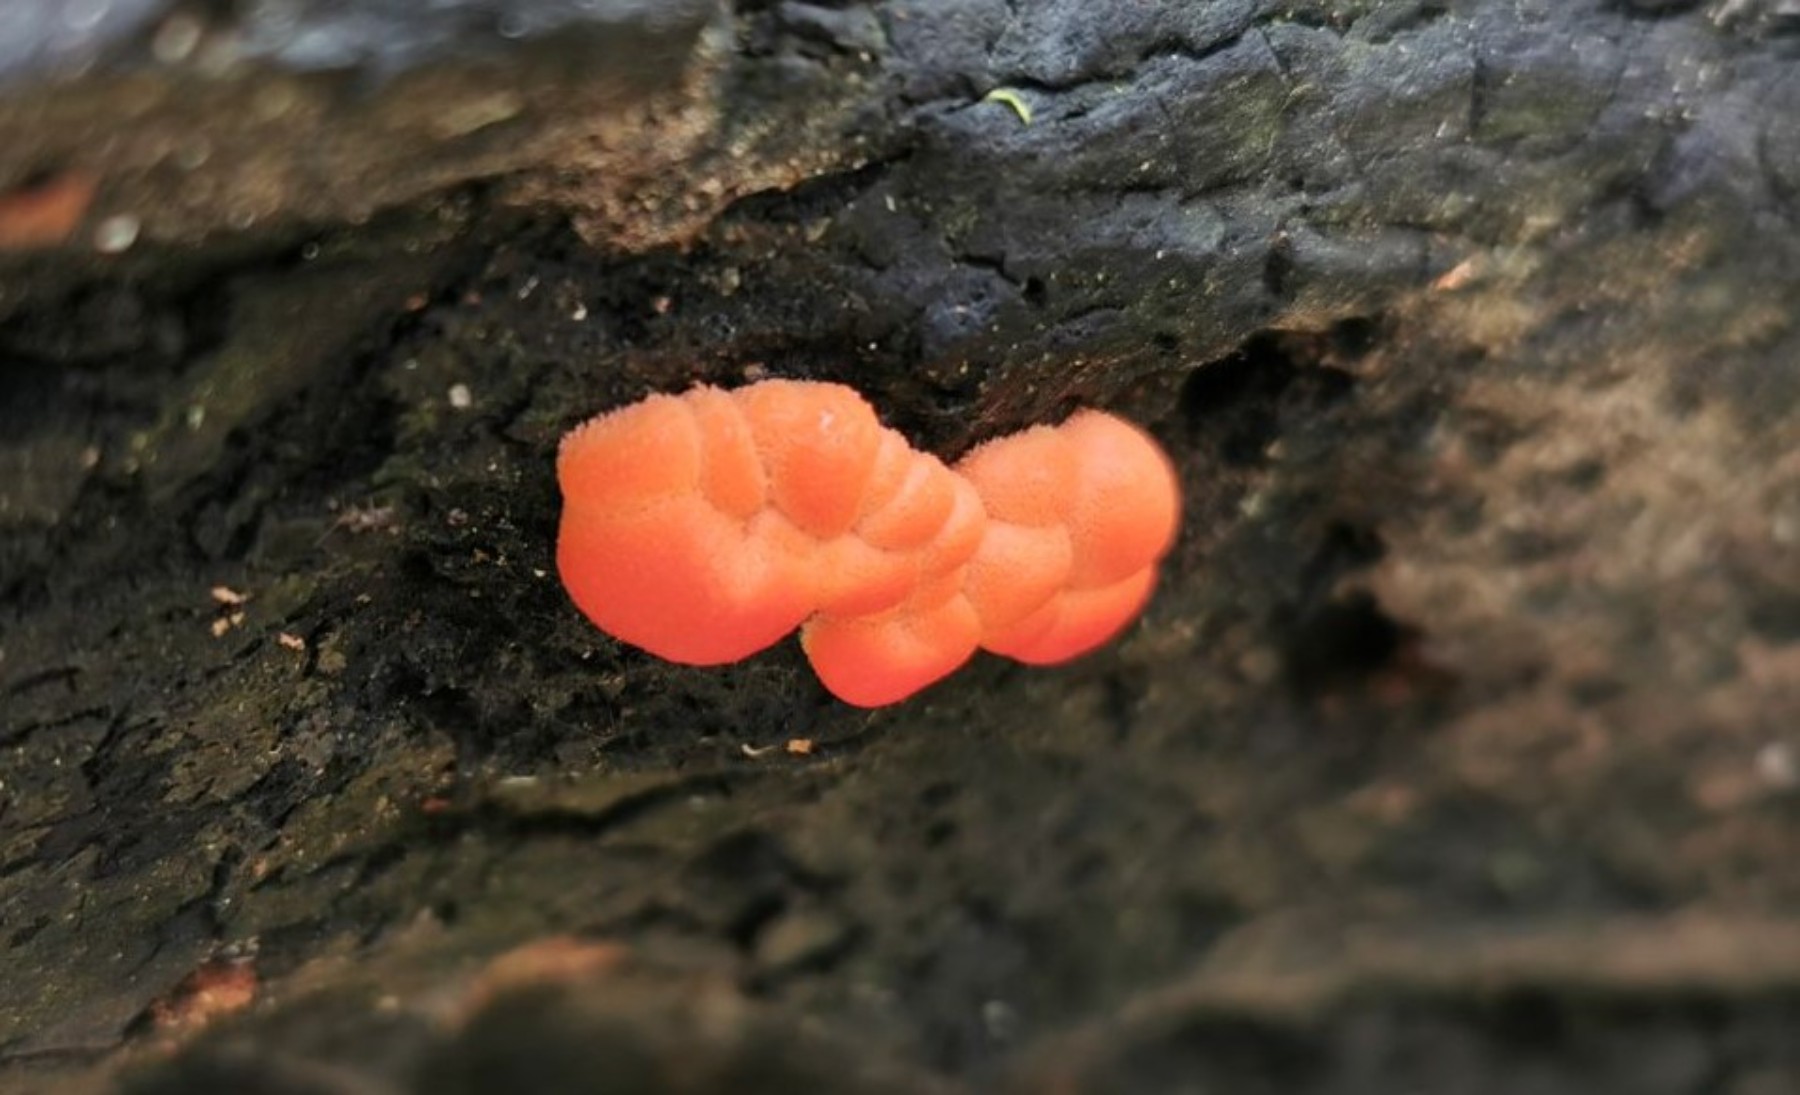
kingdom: Protozoa
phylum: Mycetozoa
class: Myxomycetes
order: Cribrariales
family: Tubiferaceae
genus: Lycogala
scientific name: Lycogala
